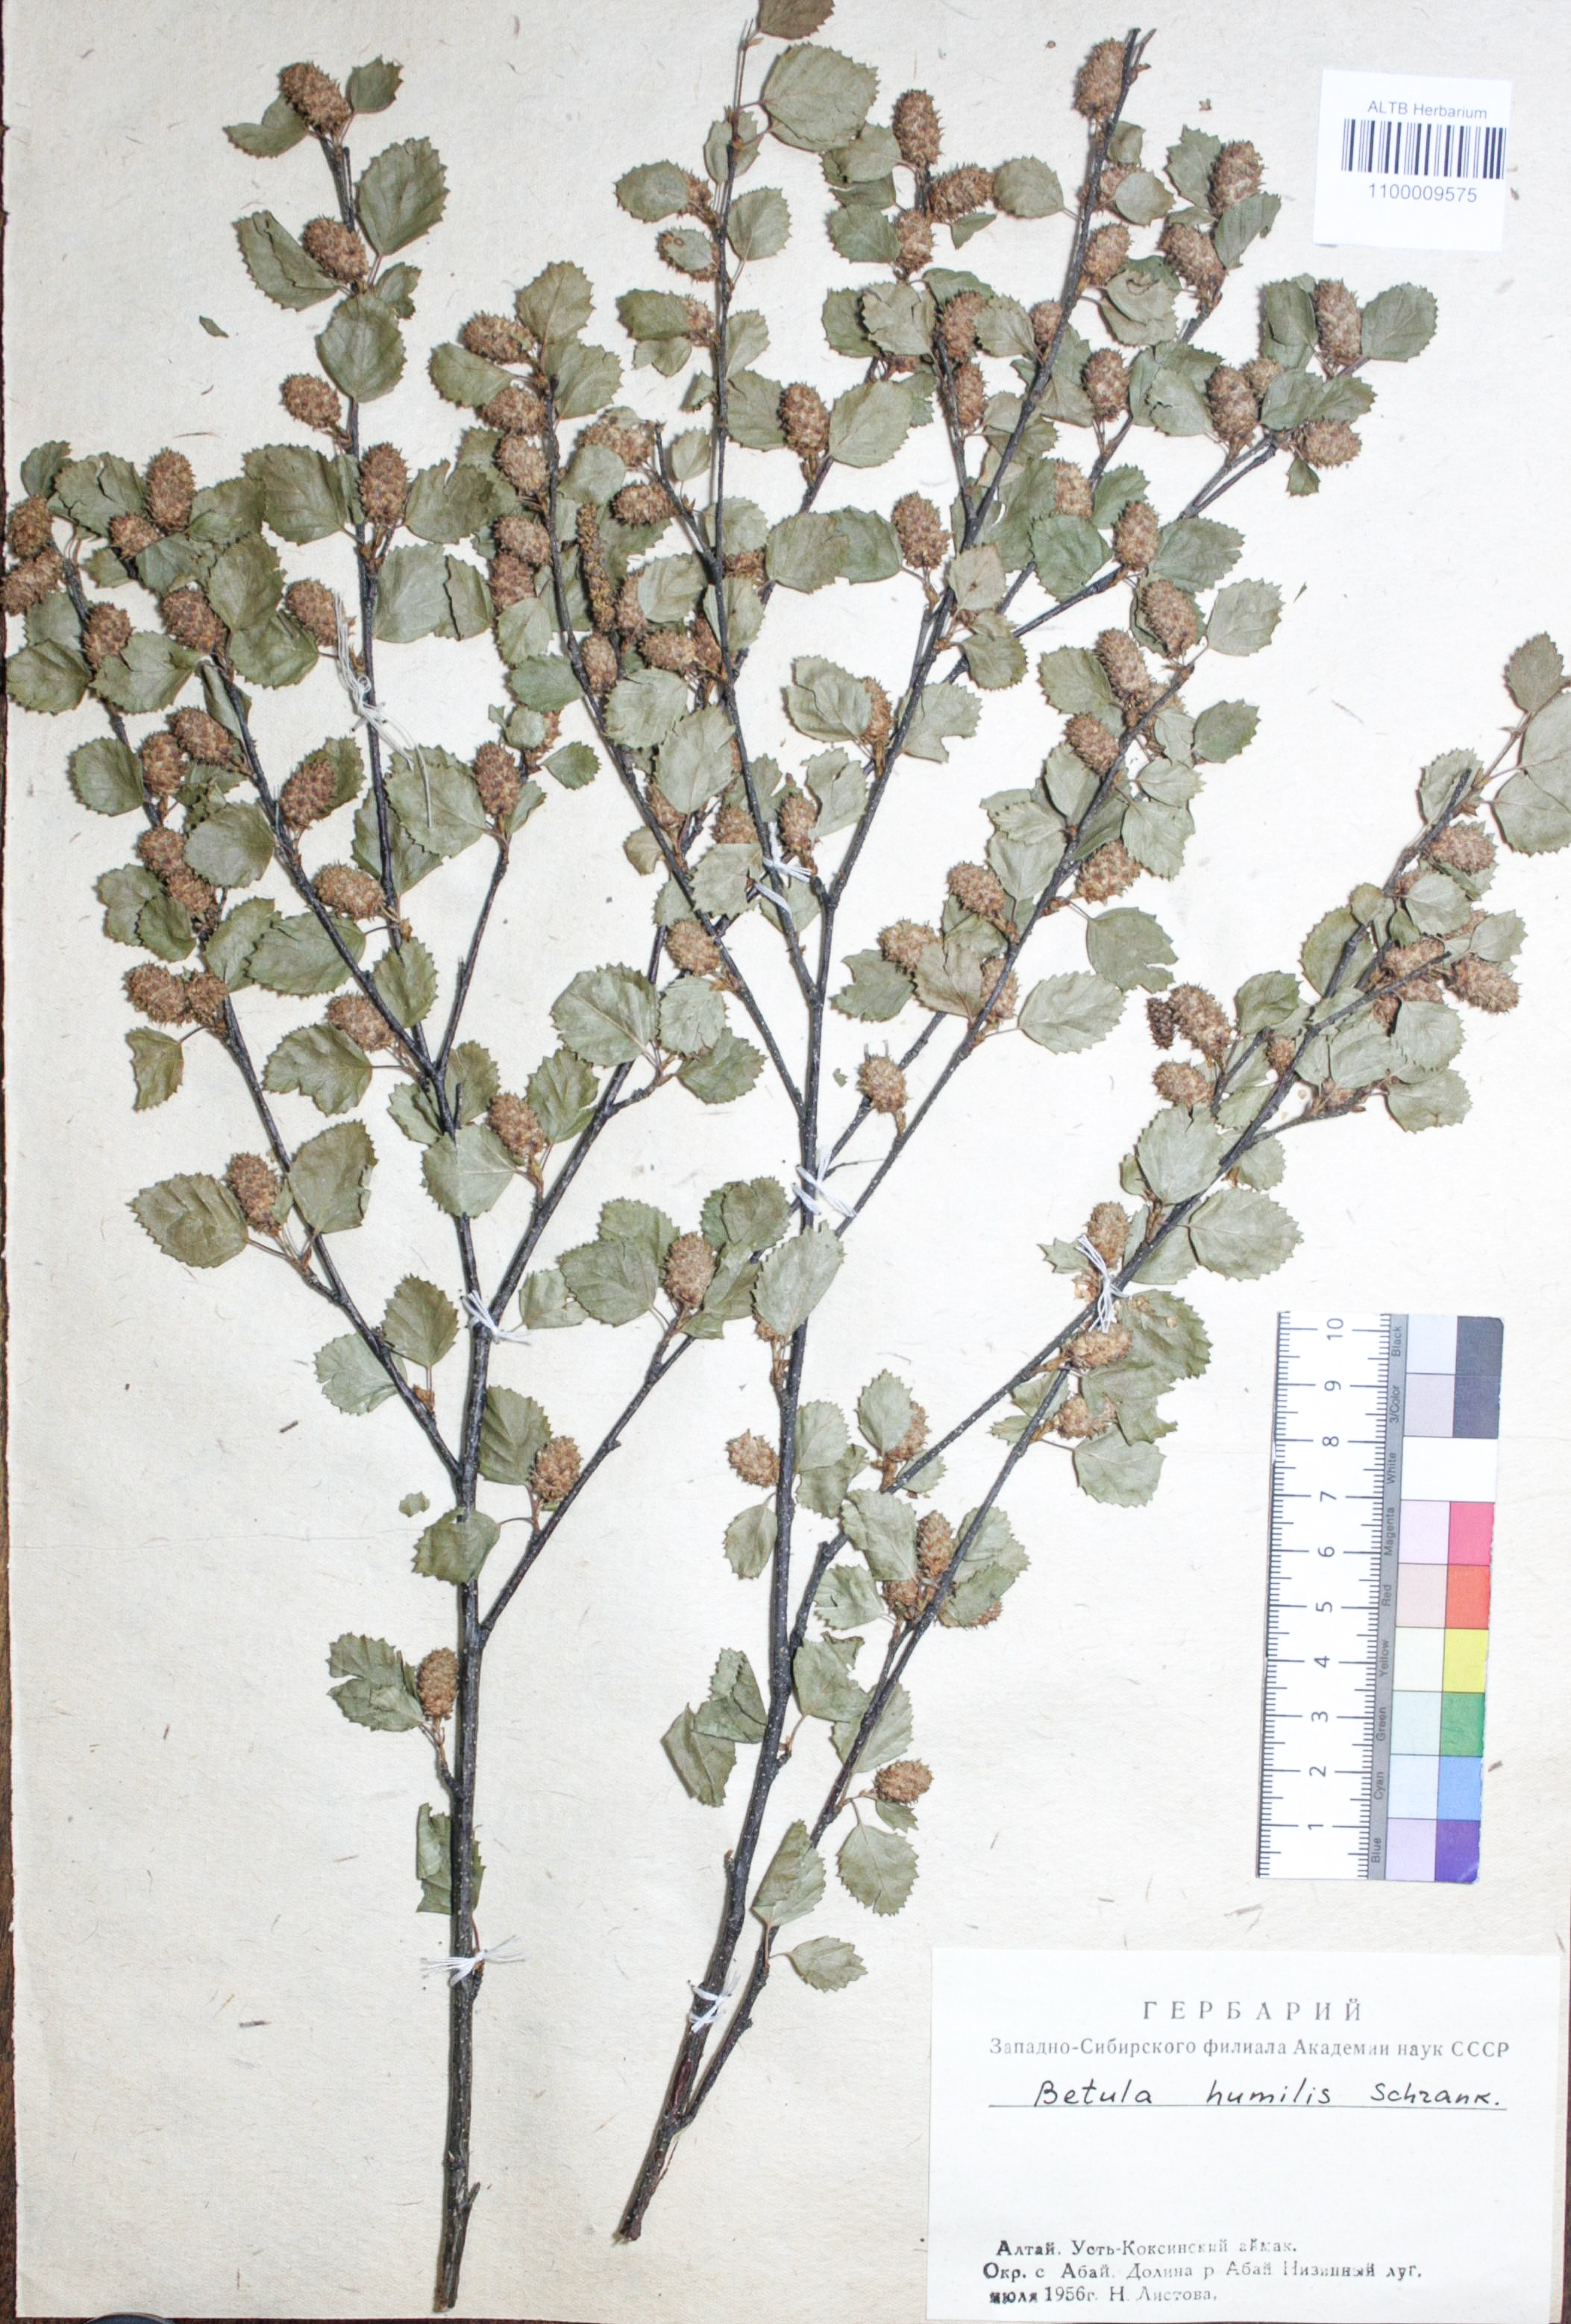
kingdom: Plantae
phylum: Tracheophyta
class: Magnoliopsida
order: Fagales
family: Betulaceae
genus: Betula
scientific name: Betula humilis
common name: Shrubby birch
